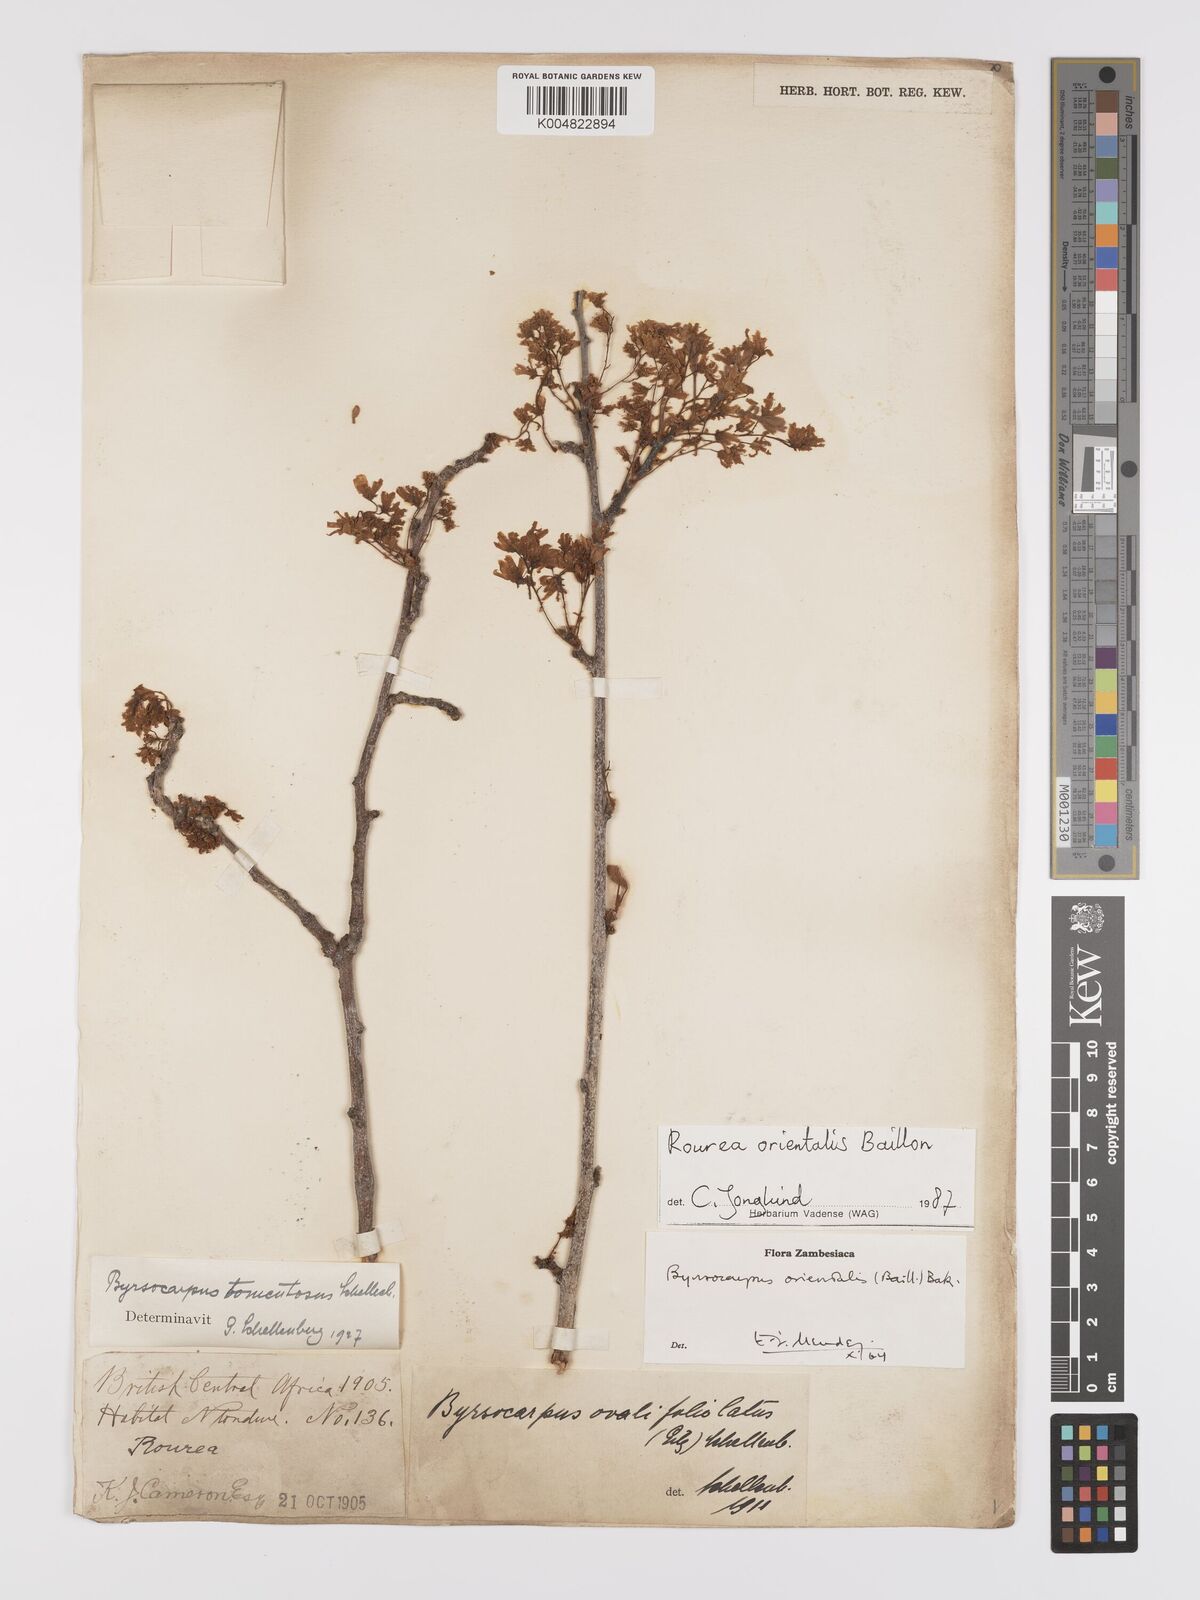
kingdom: Plantae
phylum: Tracheophyta
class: Magnoliopsida
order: Oxalidales
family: Connaraceae
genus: Rourea
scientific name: Rourea orientalis
